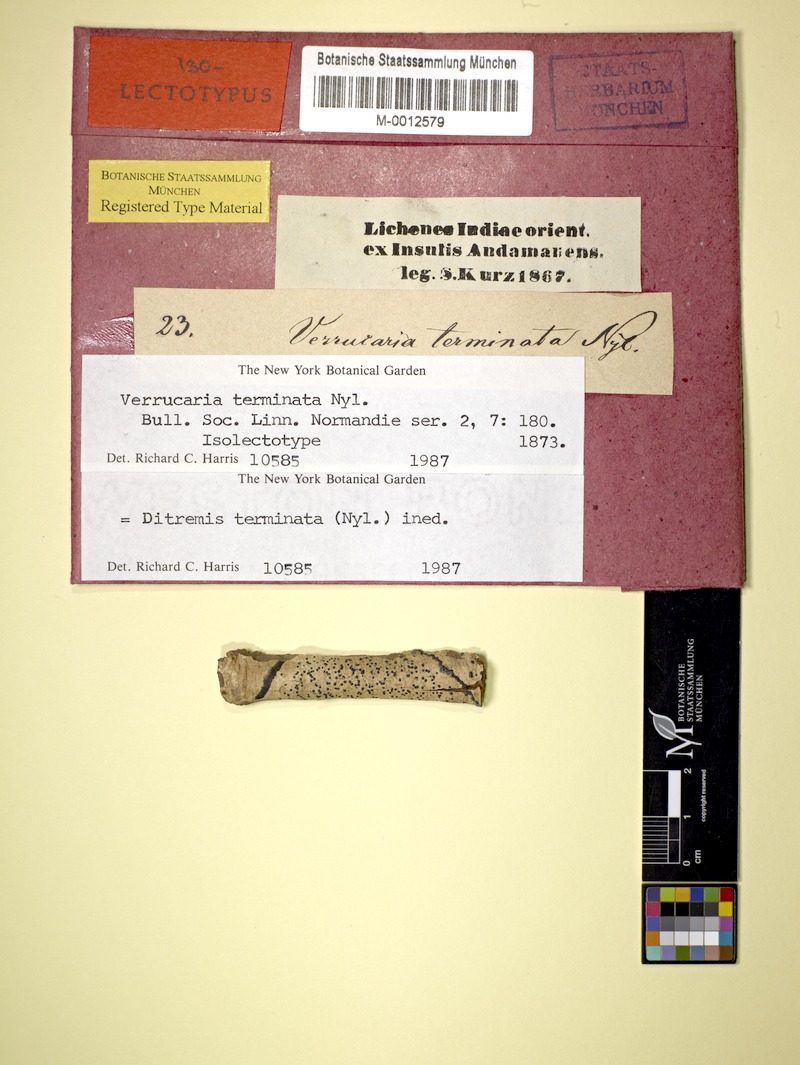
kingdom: Fungi
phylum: Ascomycota
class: Dothideomycetes
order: Monoblastiales
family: Monoblastiaceae
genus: Anisomeridium
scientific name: Anisomeridium terminatum
